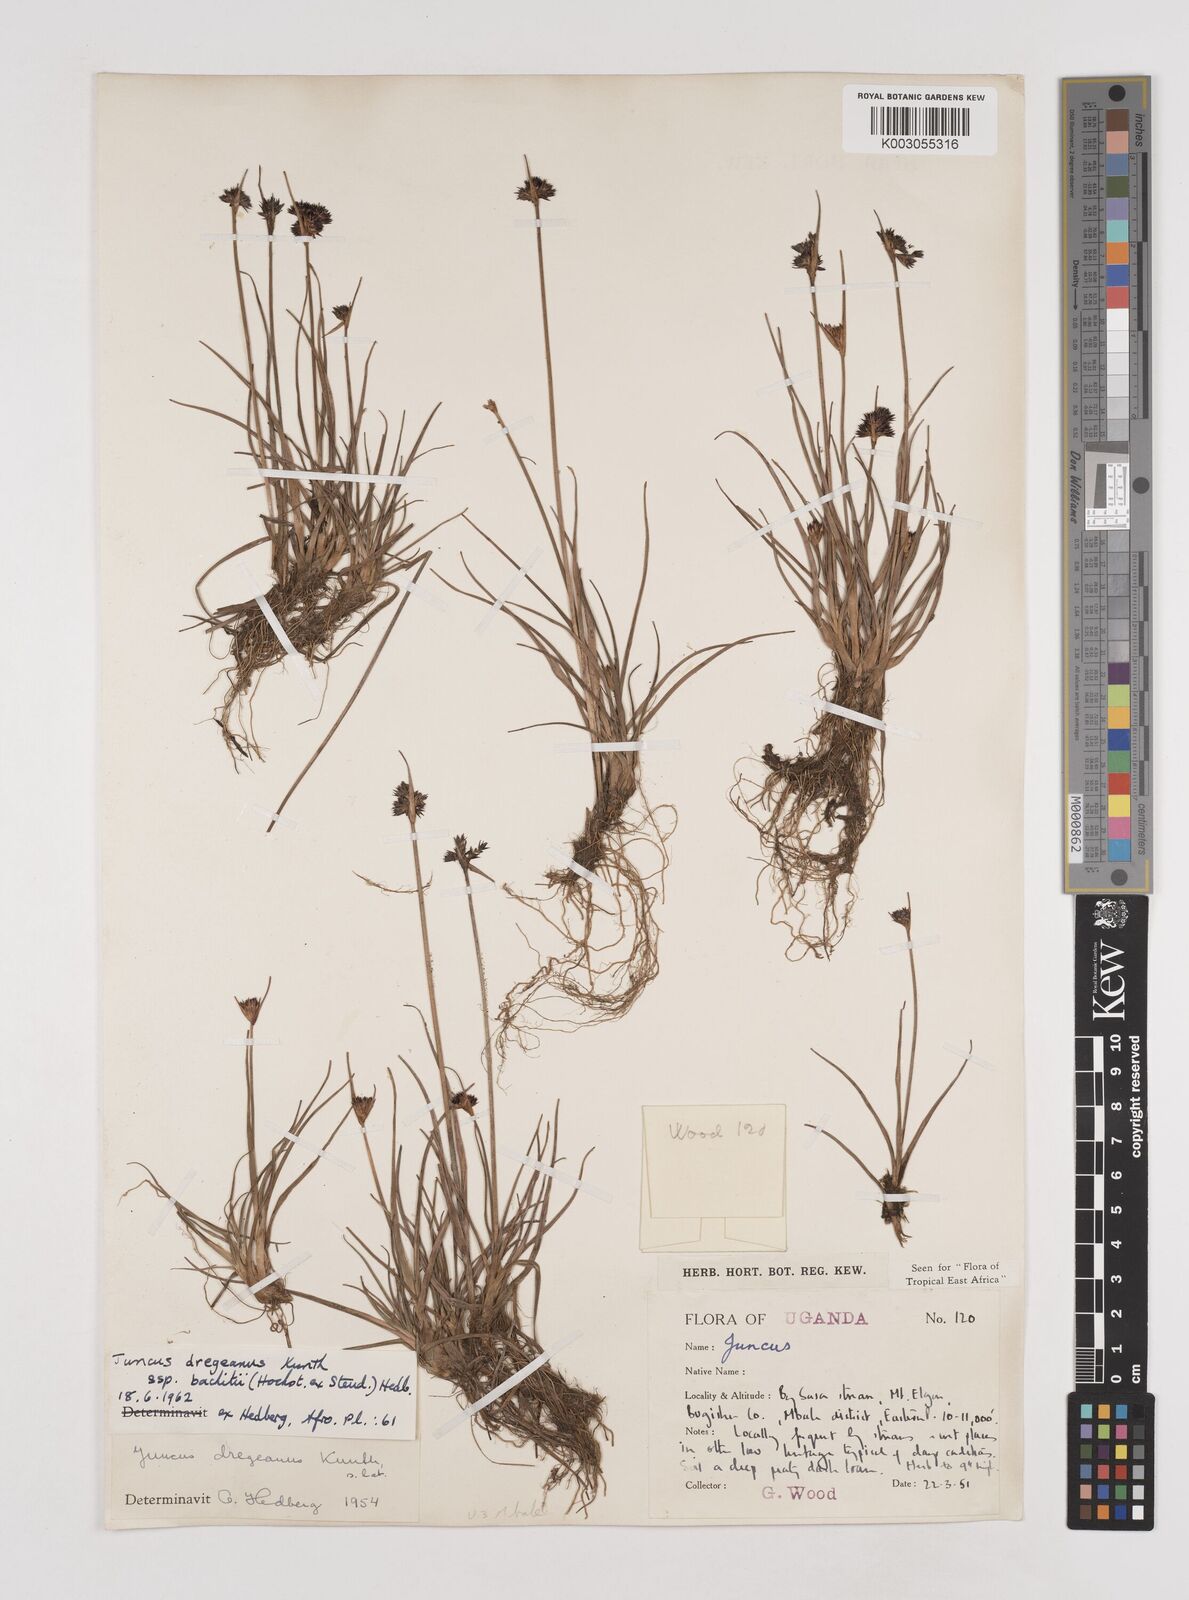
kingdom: Plantae
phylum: Tracheophyta
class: Liliopsida
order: Poales
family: Juncaceae
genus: Juncus
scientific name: Juncus dregeanus
